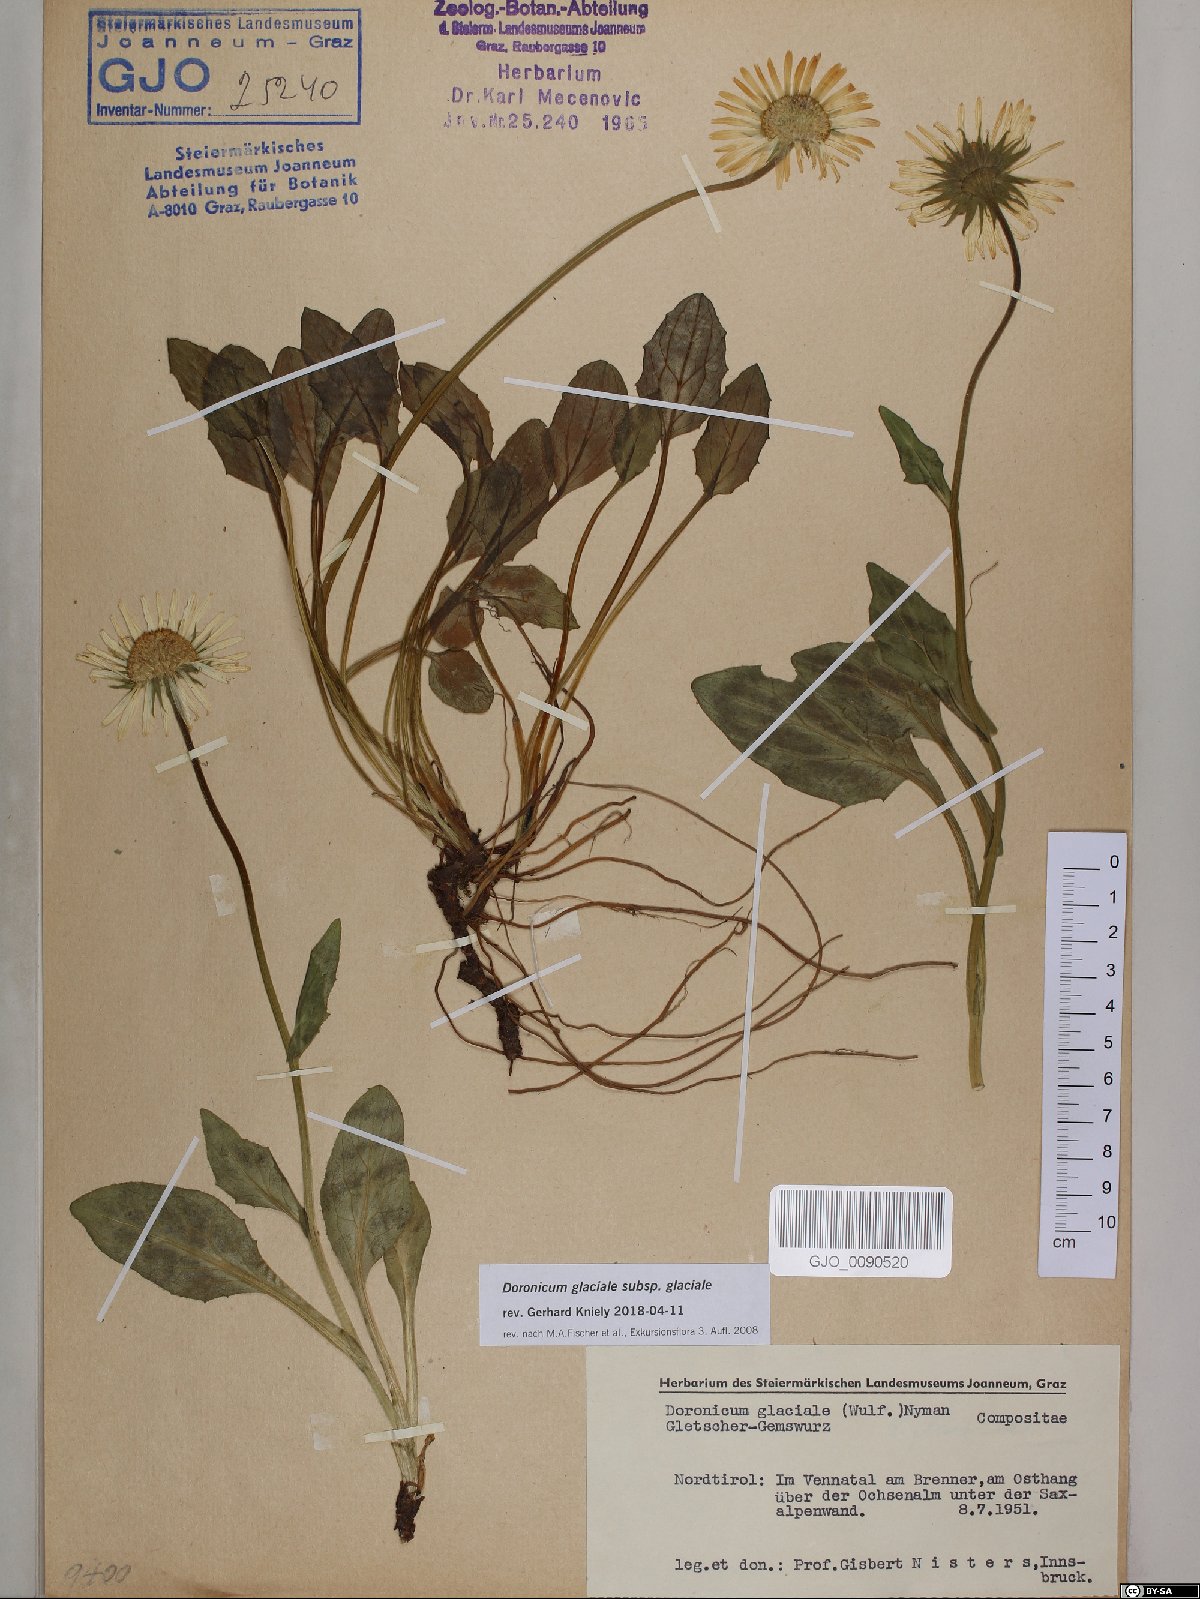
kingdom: Plantae
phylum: Tracheophyta
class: Magnoliopsida
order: Asterales
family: Asteraceae
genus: Doronicum
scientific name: Doronicum glaciale
